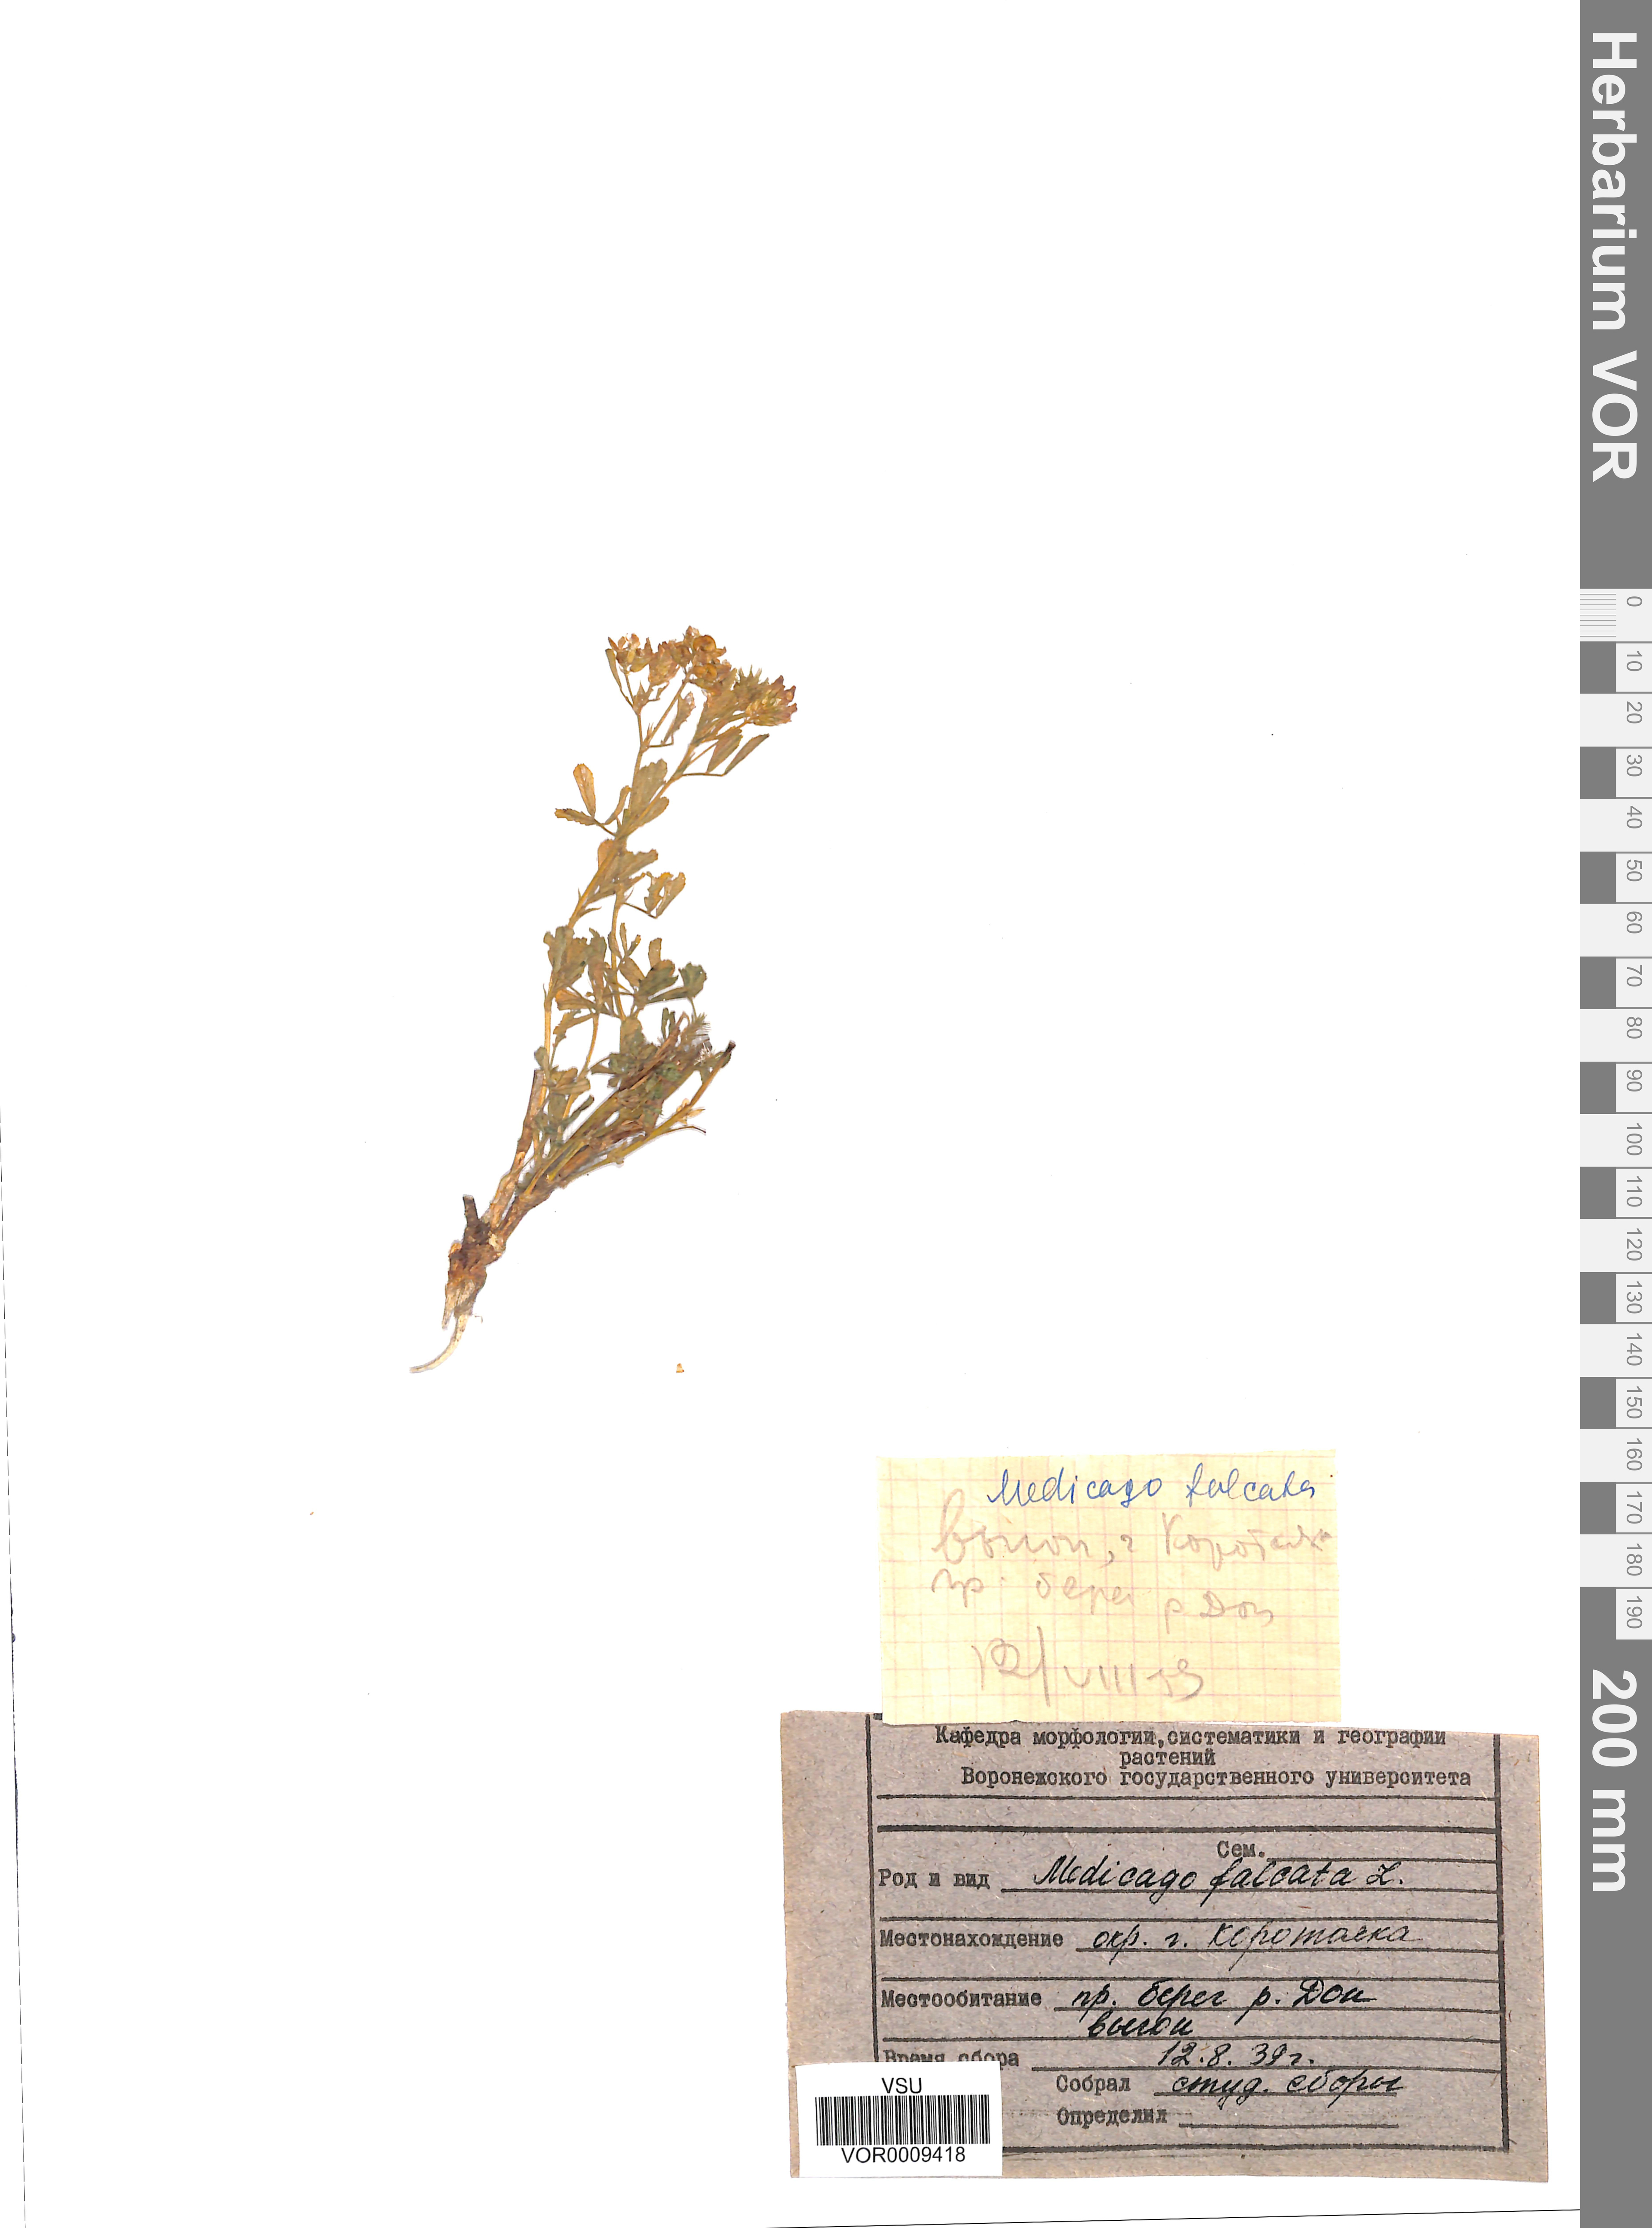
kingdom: Plantae
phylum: Tracheophyta
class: Magnoliopsida
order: Fabales
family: Fabaceae
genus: Medicago
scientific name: Medicago falcata
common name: Sickle medick
